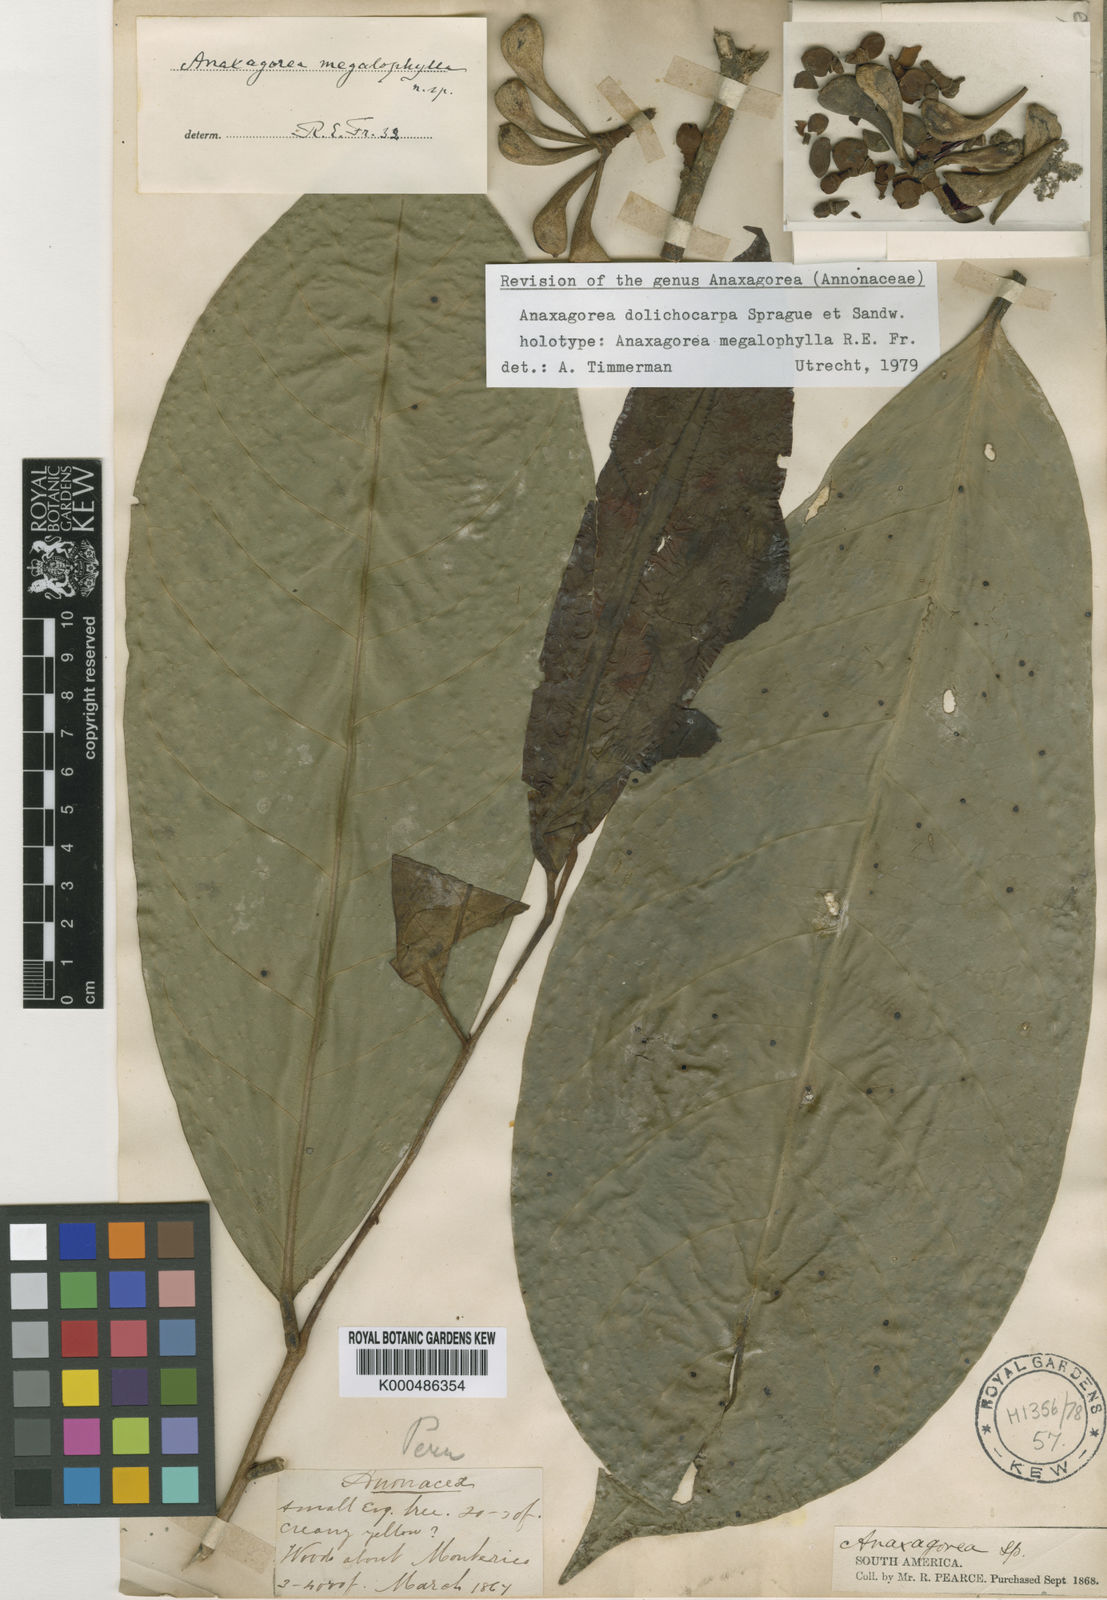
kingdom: Plantae
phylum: Tracheophyta
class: Magnoliopsida
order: Magnoliales
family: Annonaceae
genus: Anaxagorea
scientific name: Anaxagorea dolichocarpa
